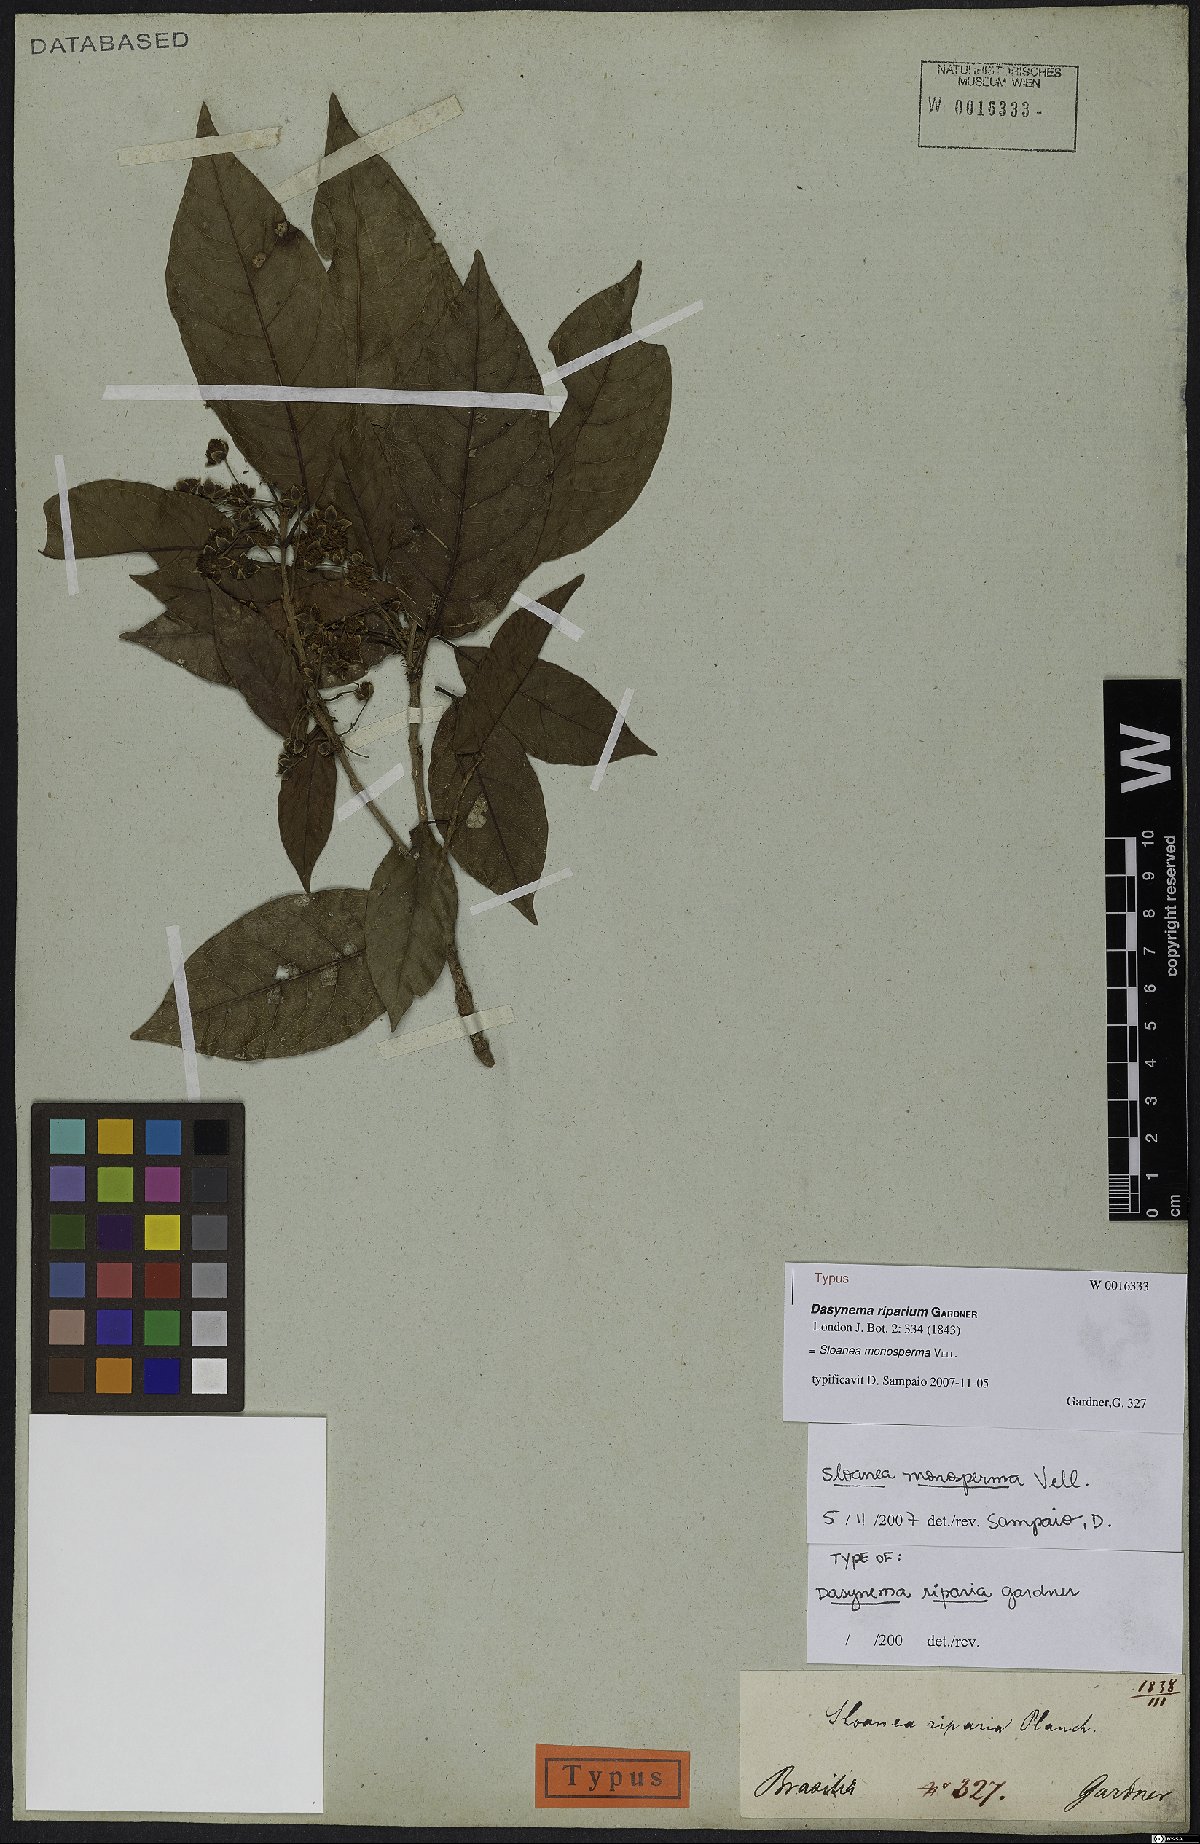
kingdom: Plantae
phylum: Tracheophyta
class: Magnoliopsida
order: Oxalidales
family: Elaeocarpaceae
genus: Sloanea
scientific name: Sloanea hirsuta
